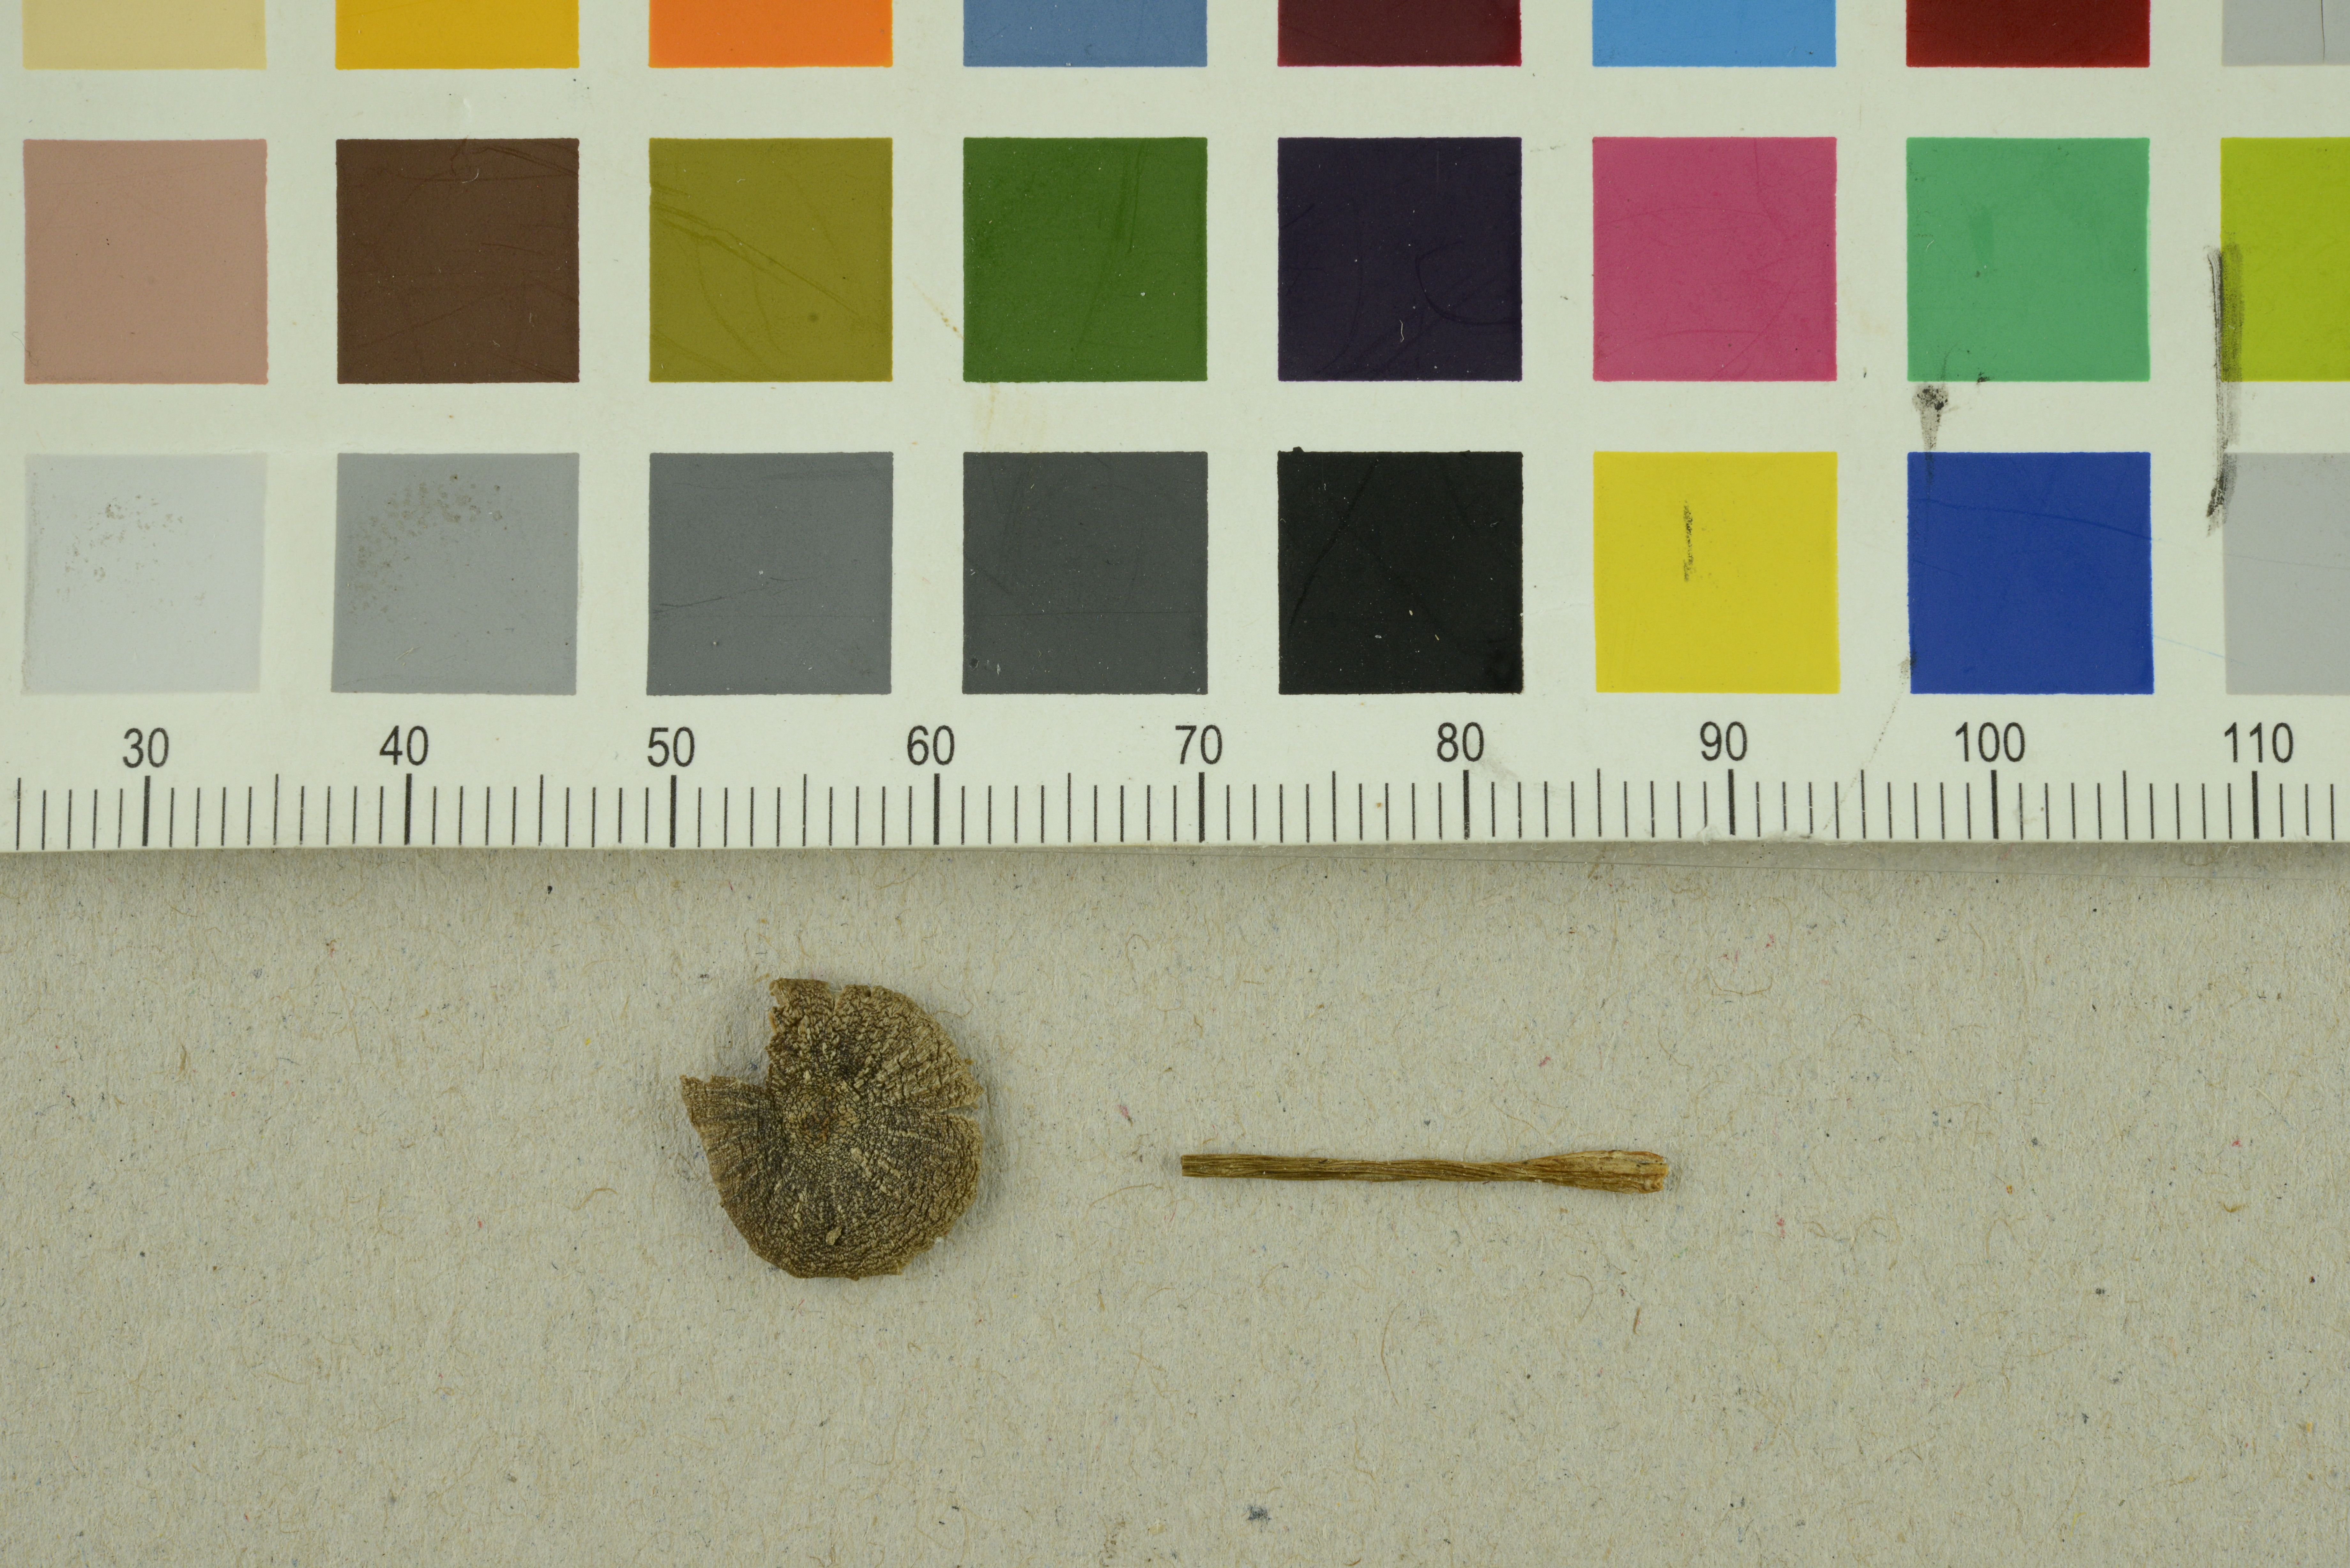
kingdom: Fungi
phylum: Basidiomycota
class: Agaricomycetes
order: Agaricales
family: Entolomataceae
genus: Entoloma
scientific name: Entoloma proterum
